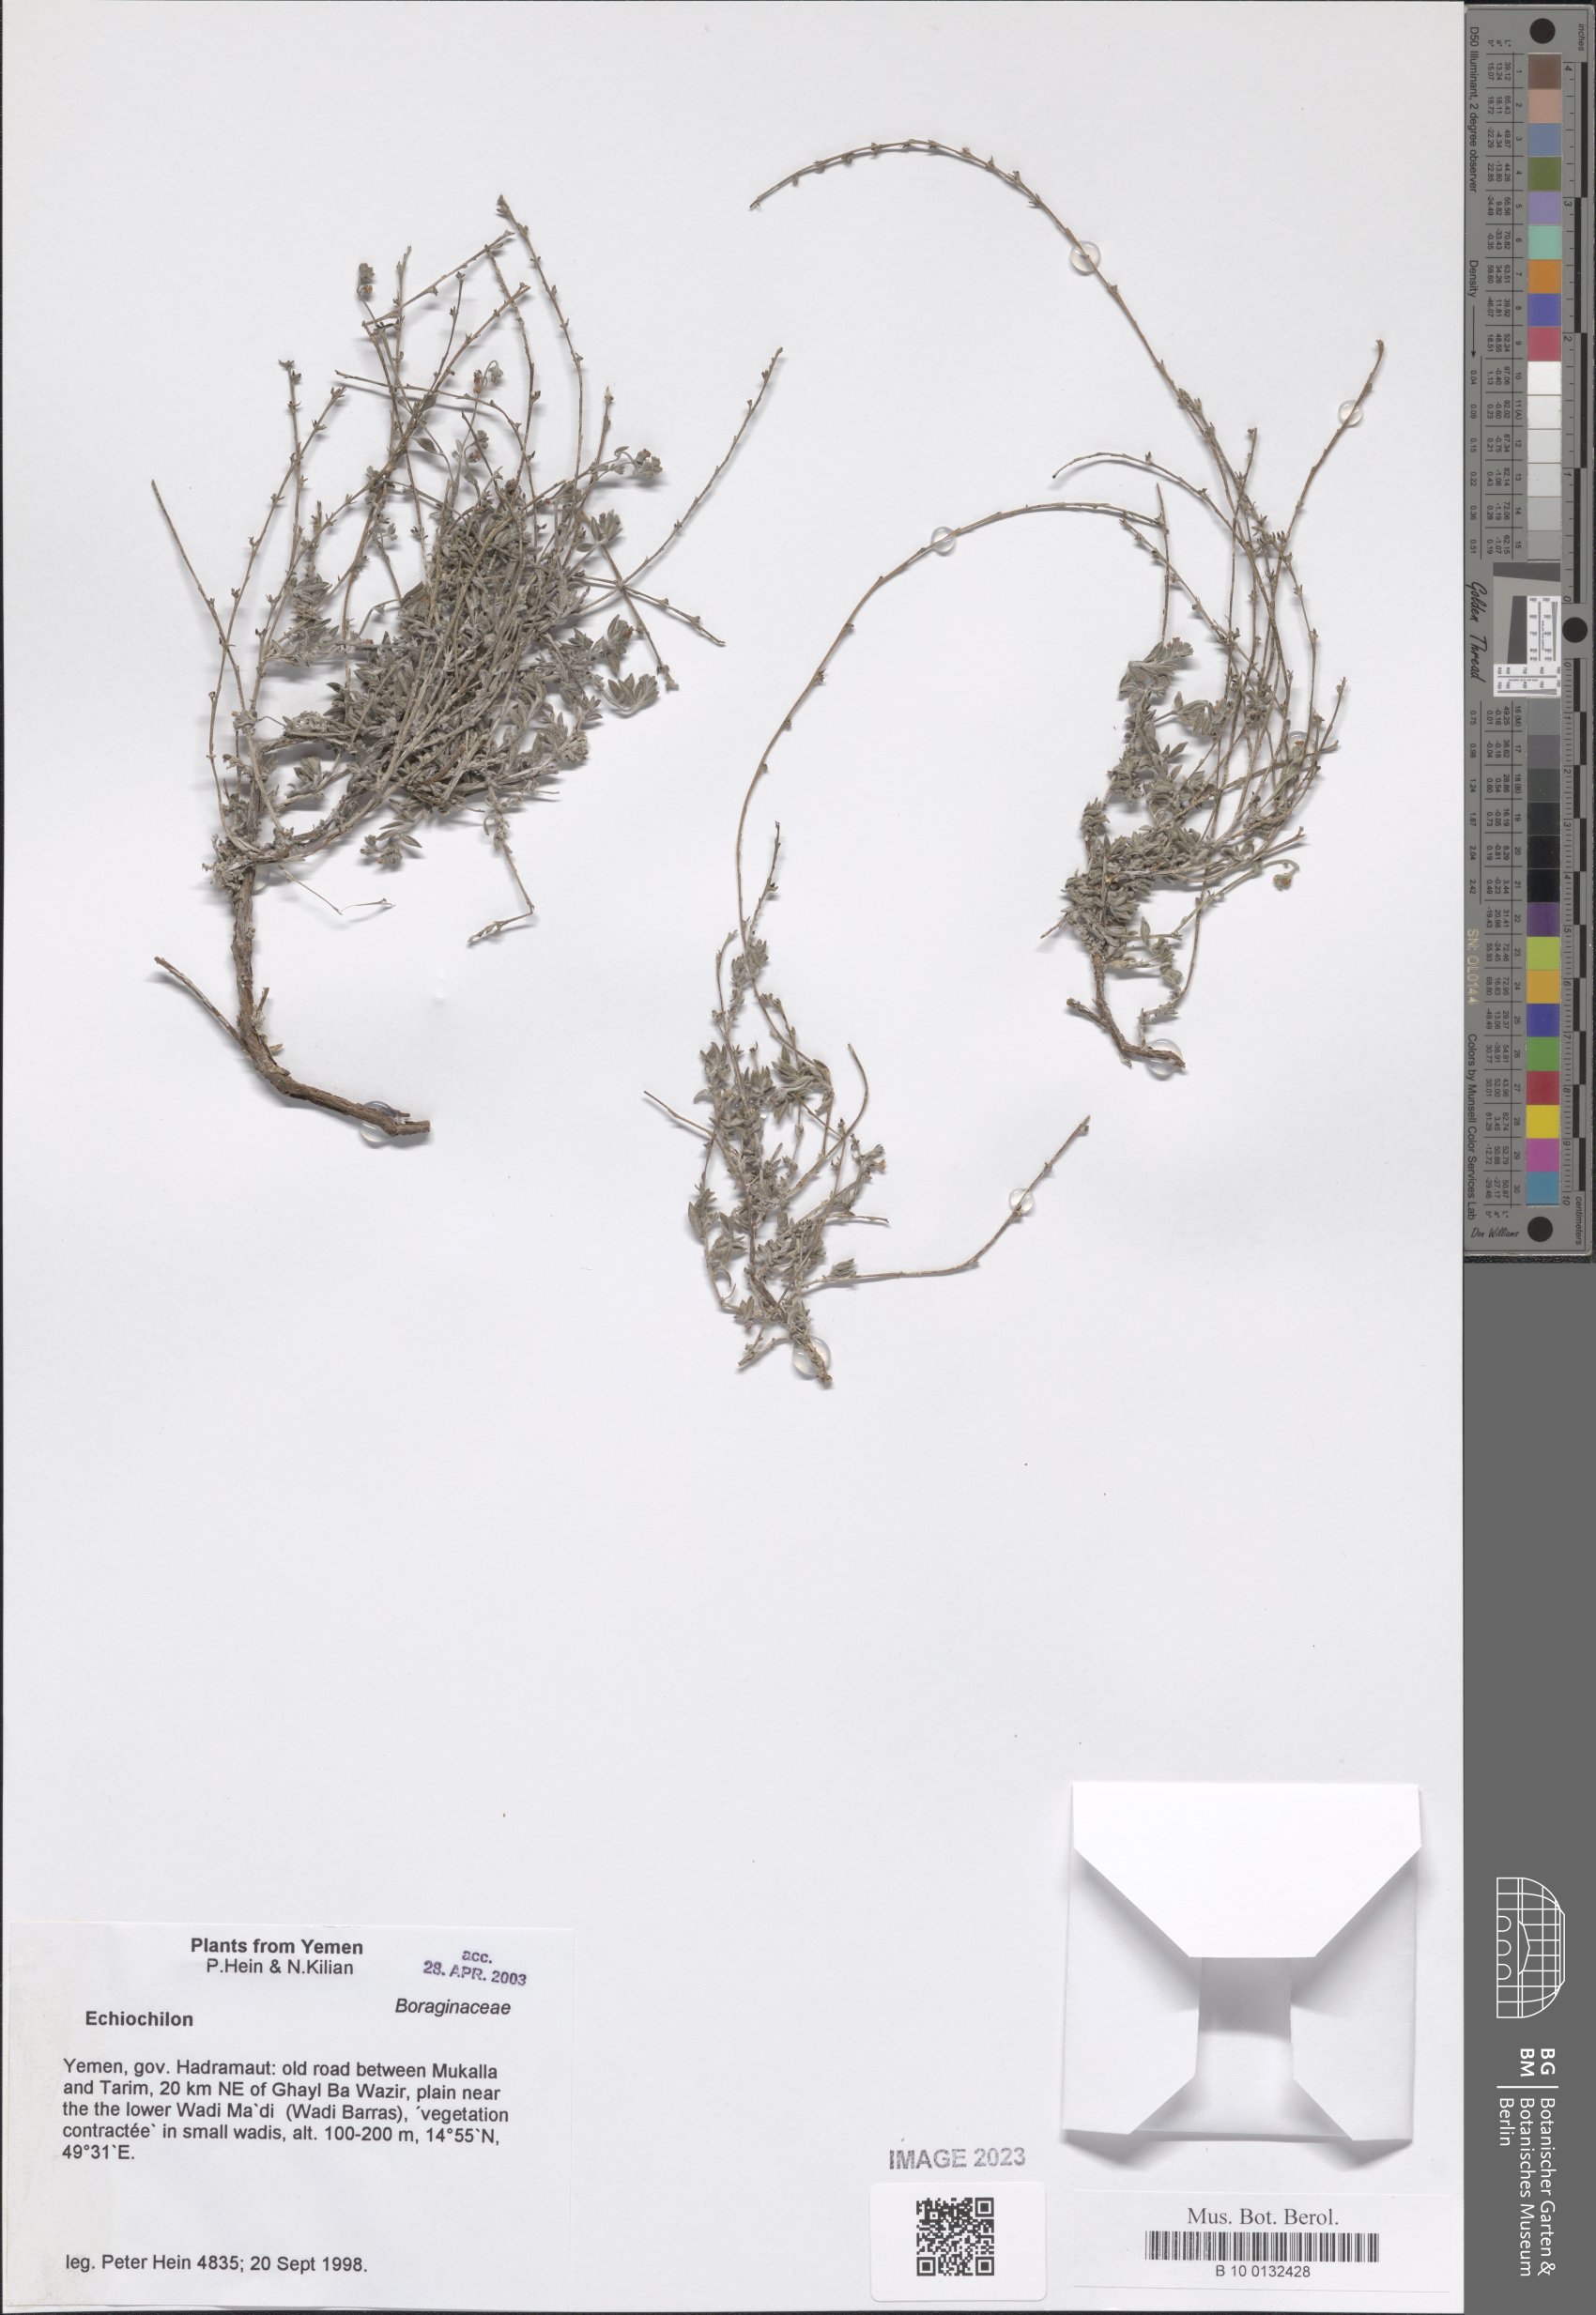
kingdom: Plantae
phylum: Tracheophyta
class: Magnoliopsida
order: Boraginales
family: Boraginaceae
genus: Echiochilon
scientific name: Echiochilon
